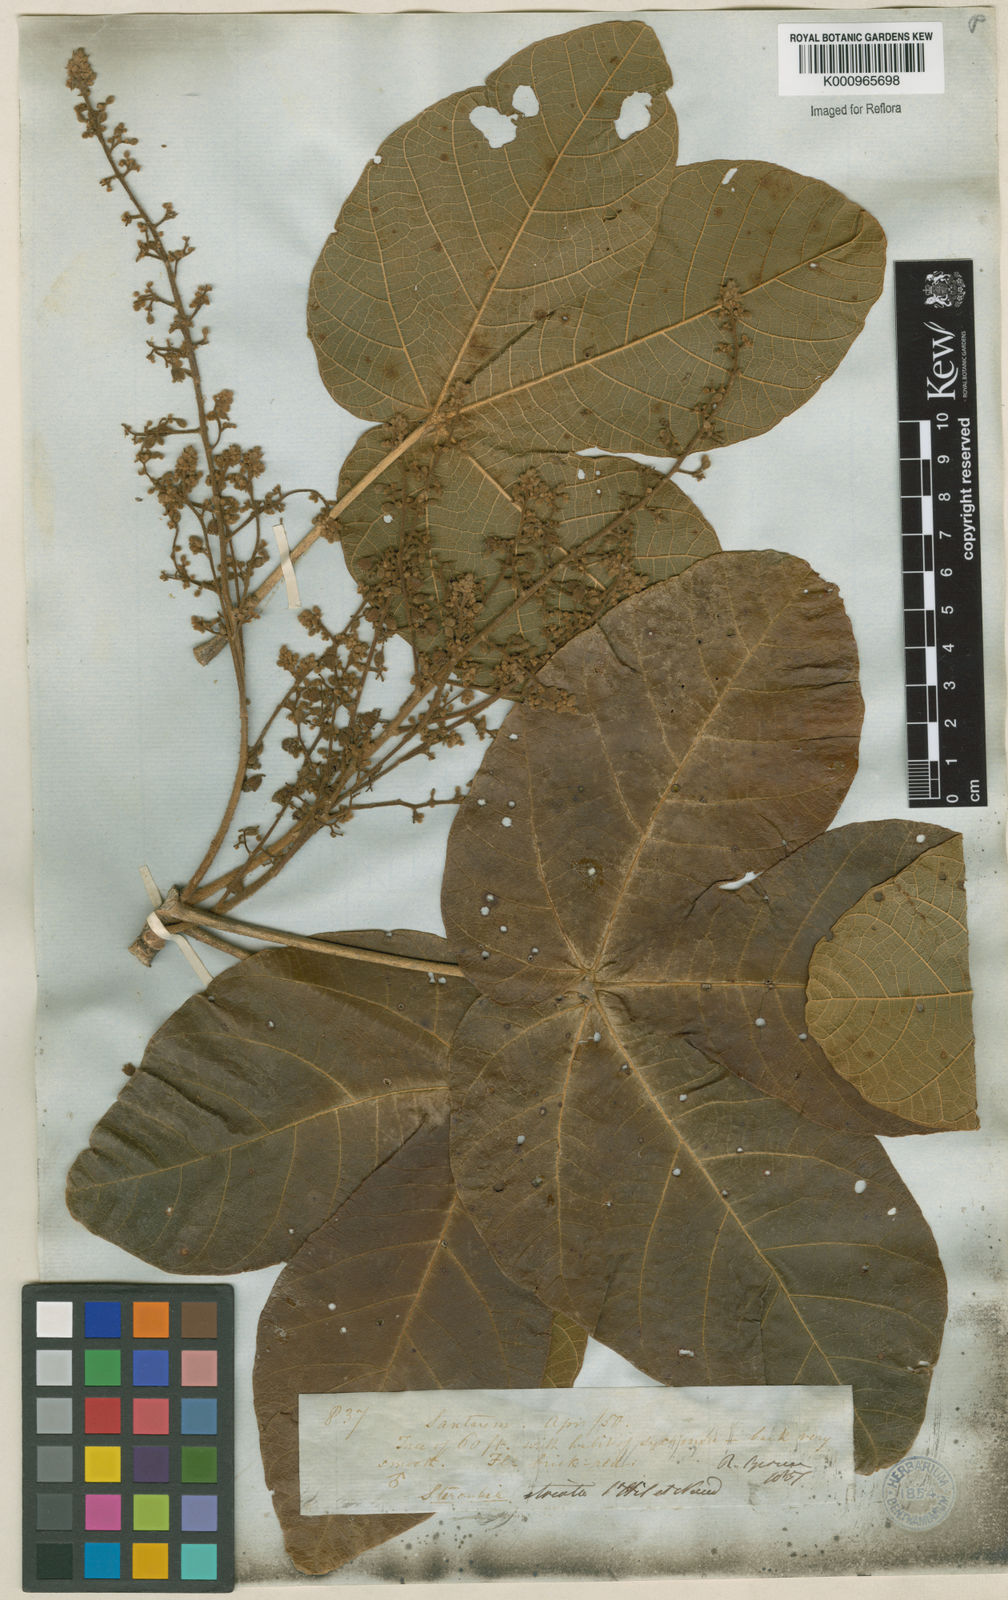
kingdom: Plantae
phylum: Tracheophyta
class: Magnoliopsida
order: Malvales
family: Malvaceae
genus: Sterculia
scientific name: Sterculia striata
